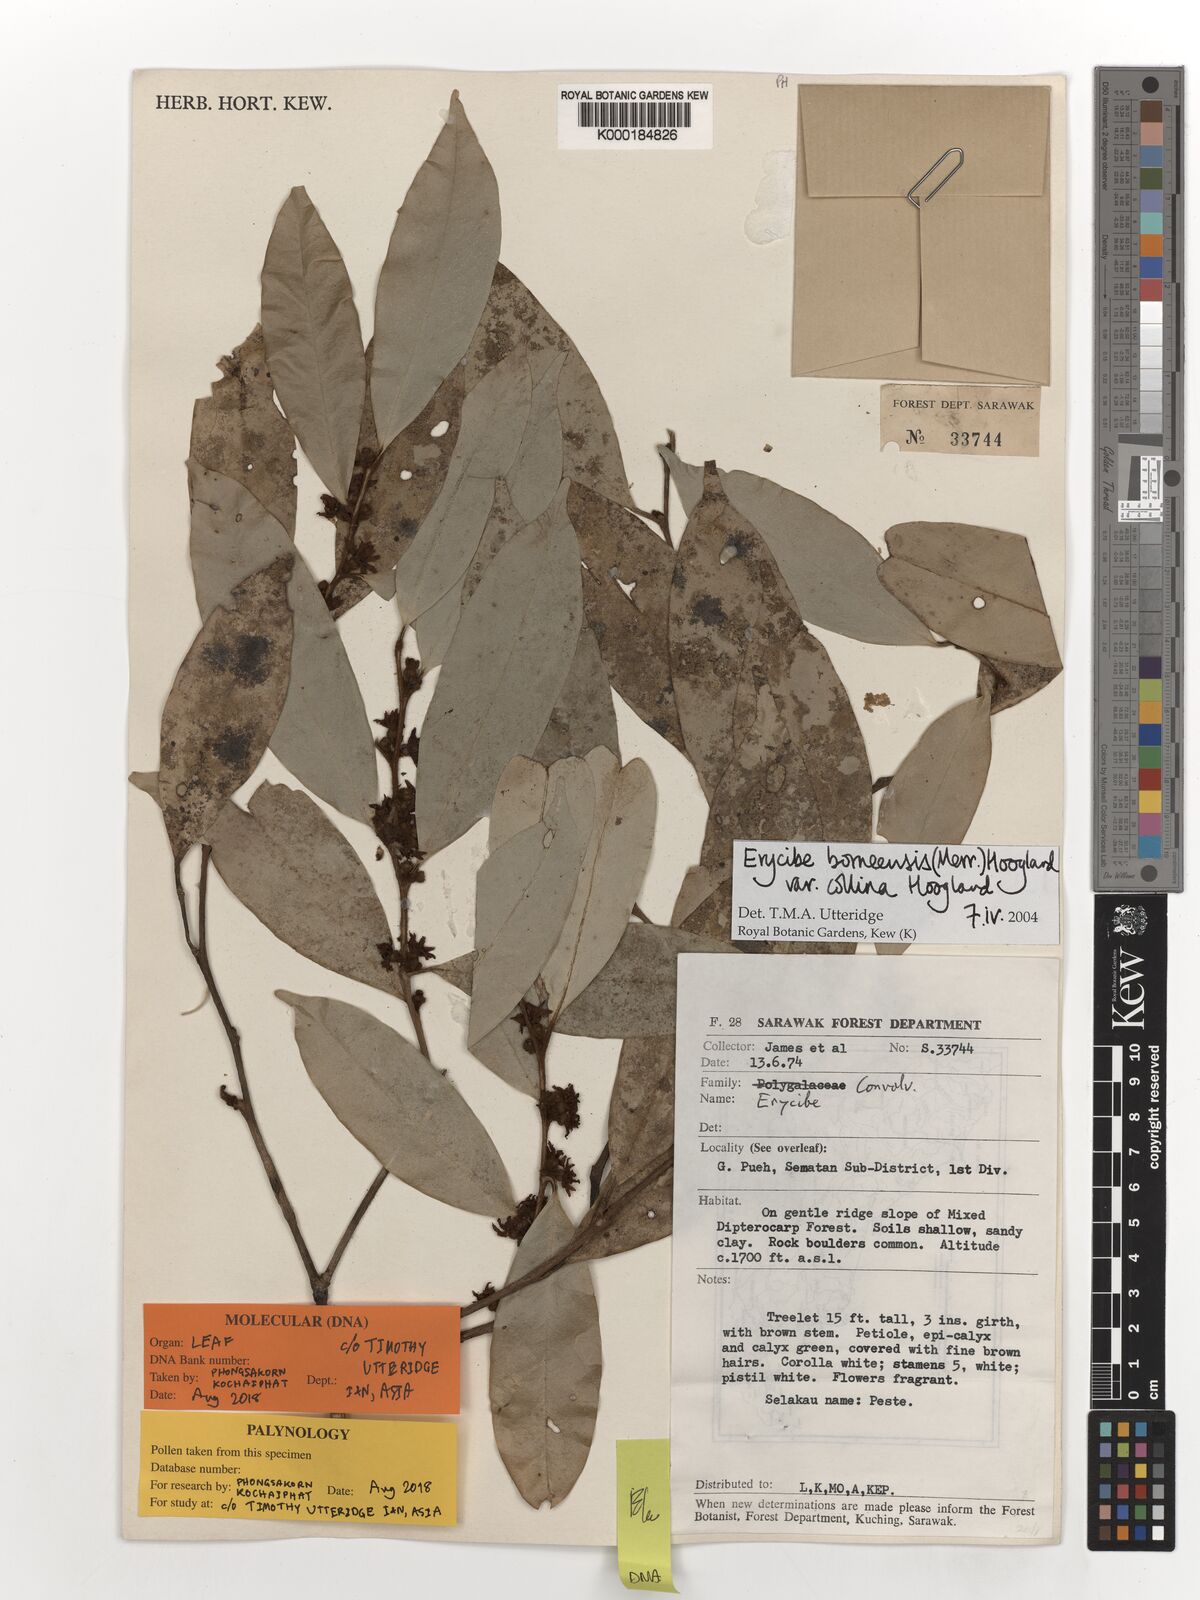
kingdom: Plantae
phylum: Tracheophyta
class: Magnoliopsida
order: Solanales
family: Convolvulaceae
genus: Erycibe
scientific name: Erycibe borneensis
